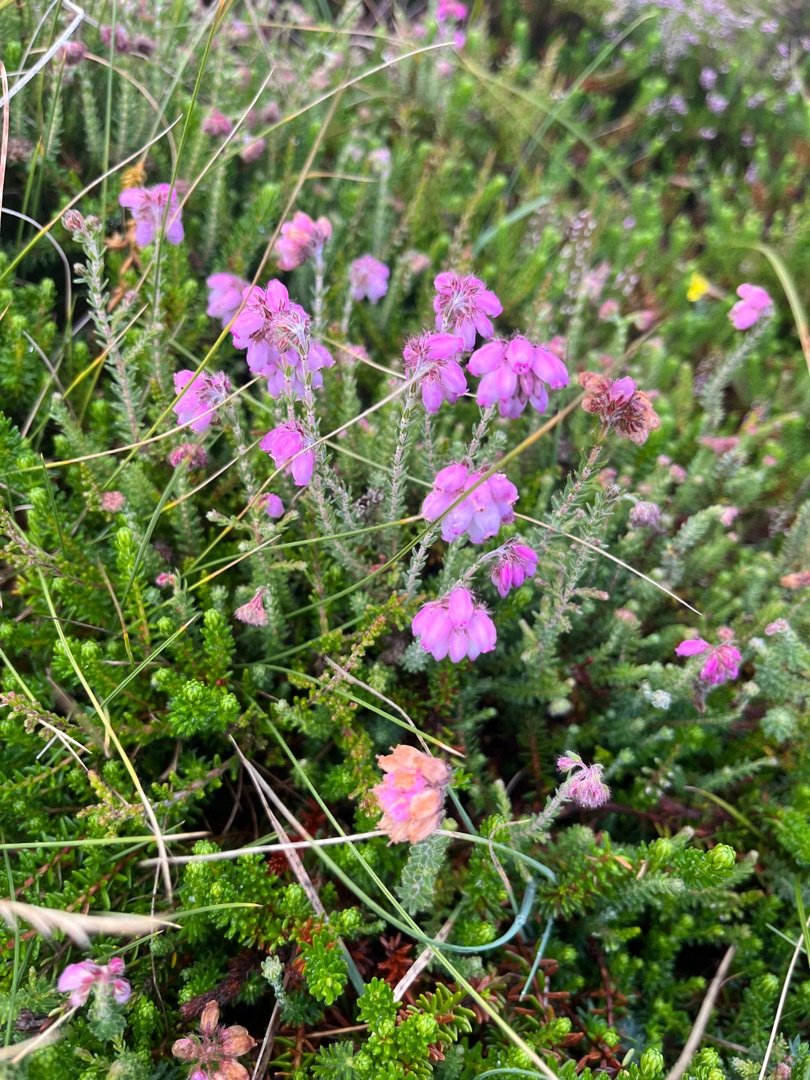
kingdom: Plantae
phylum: Tracheophyta
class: Magnoliopsida
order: Ericales
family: Ericaceae
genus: Erica
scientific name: Erica tetralix
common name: Klokkelyng
